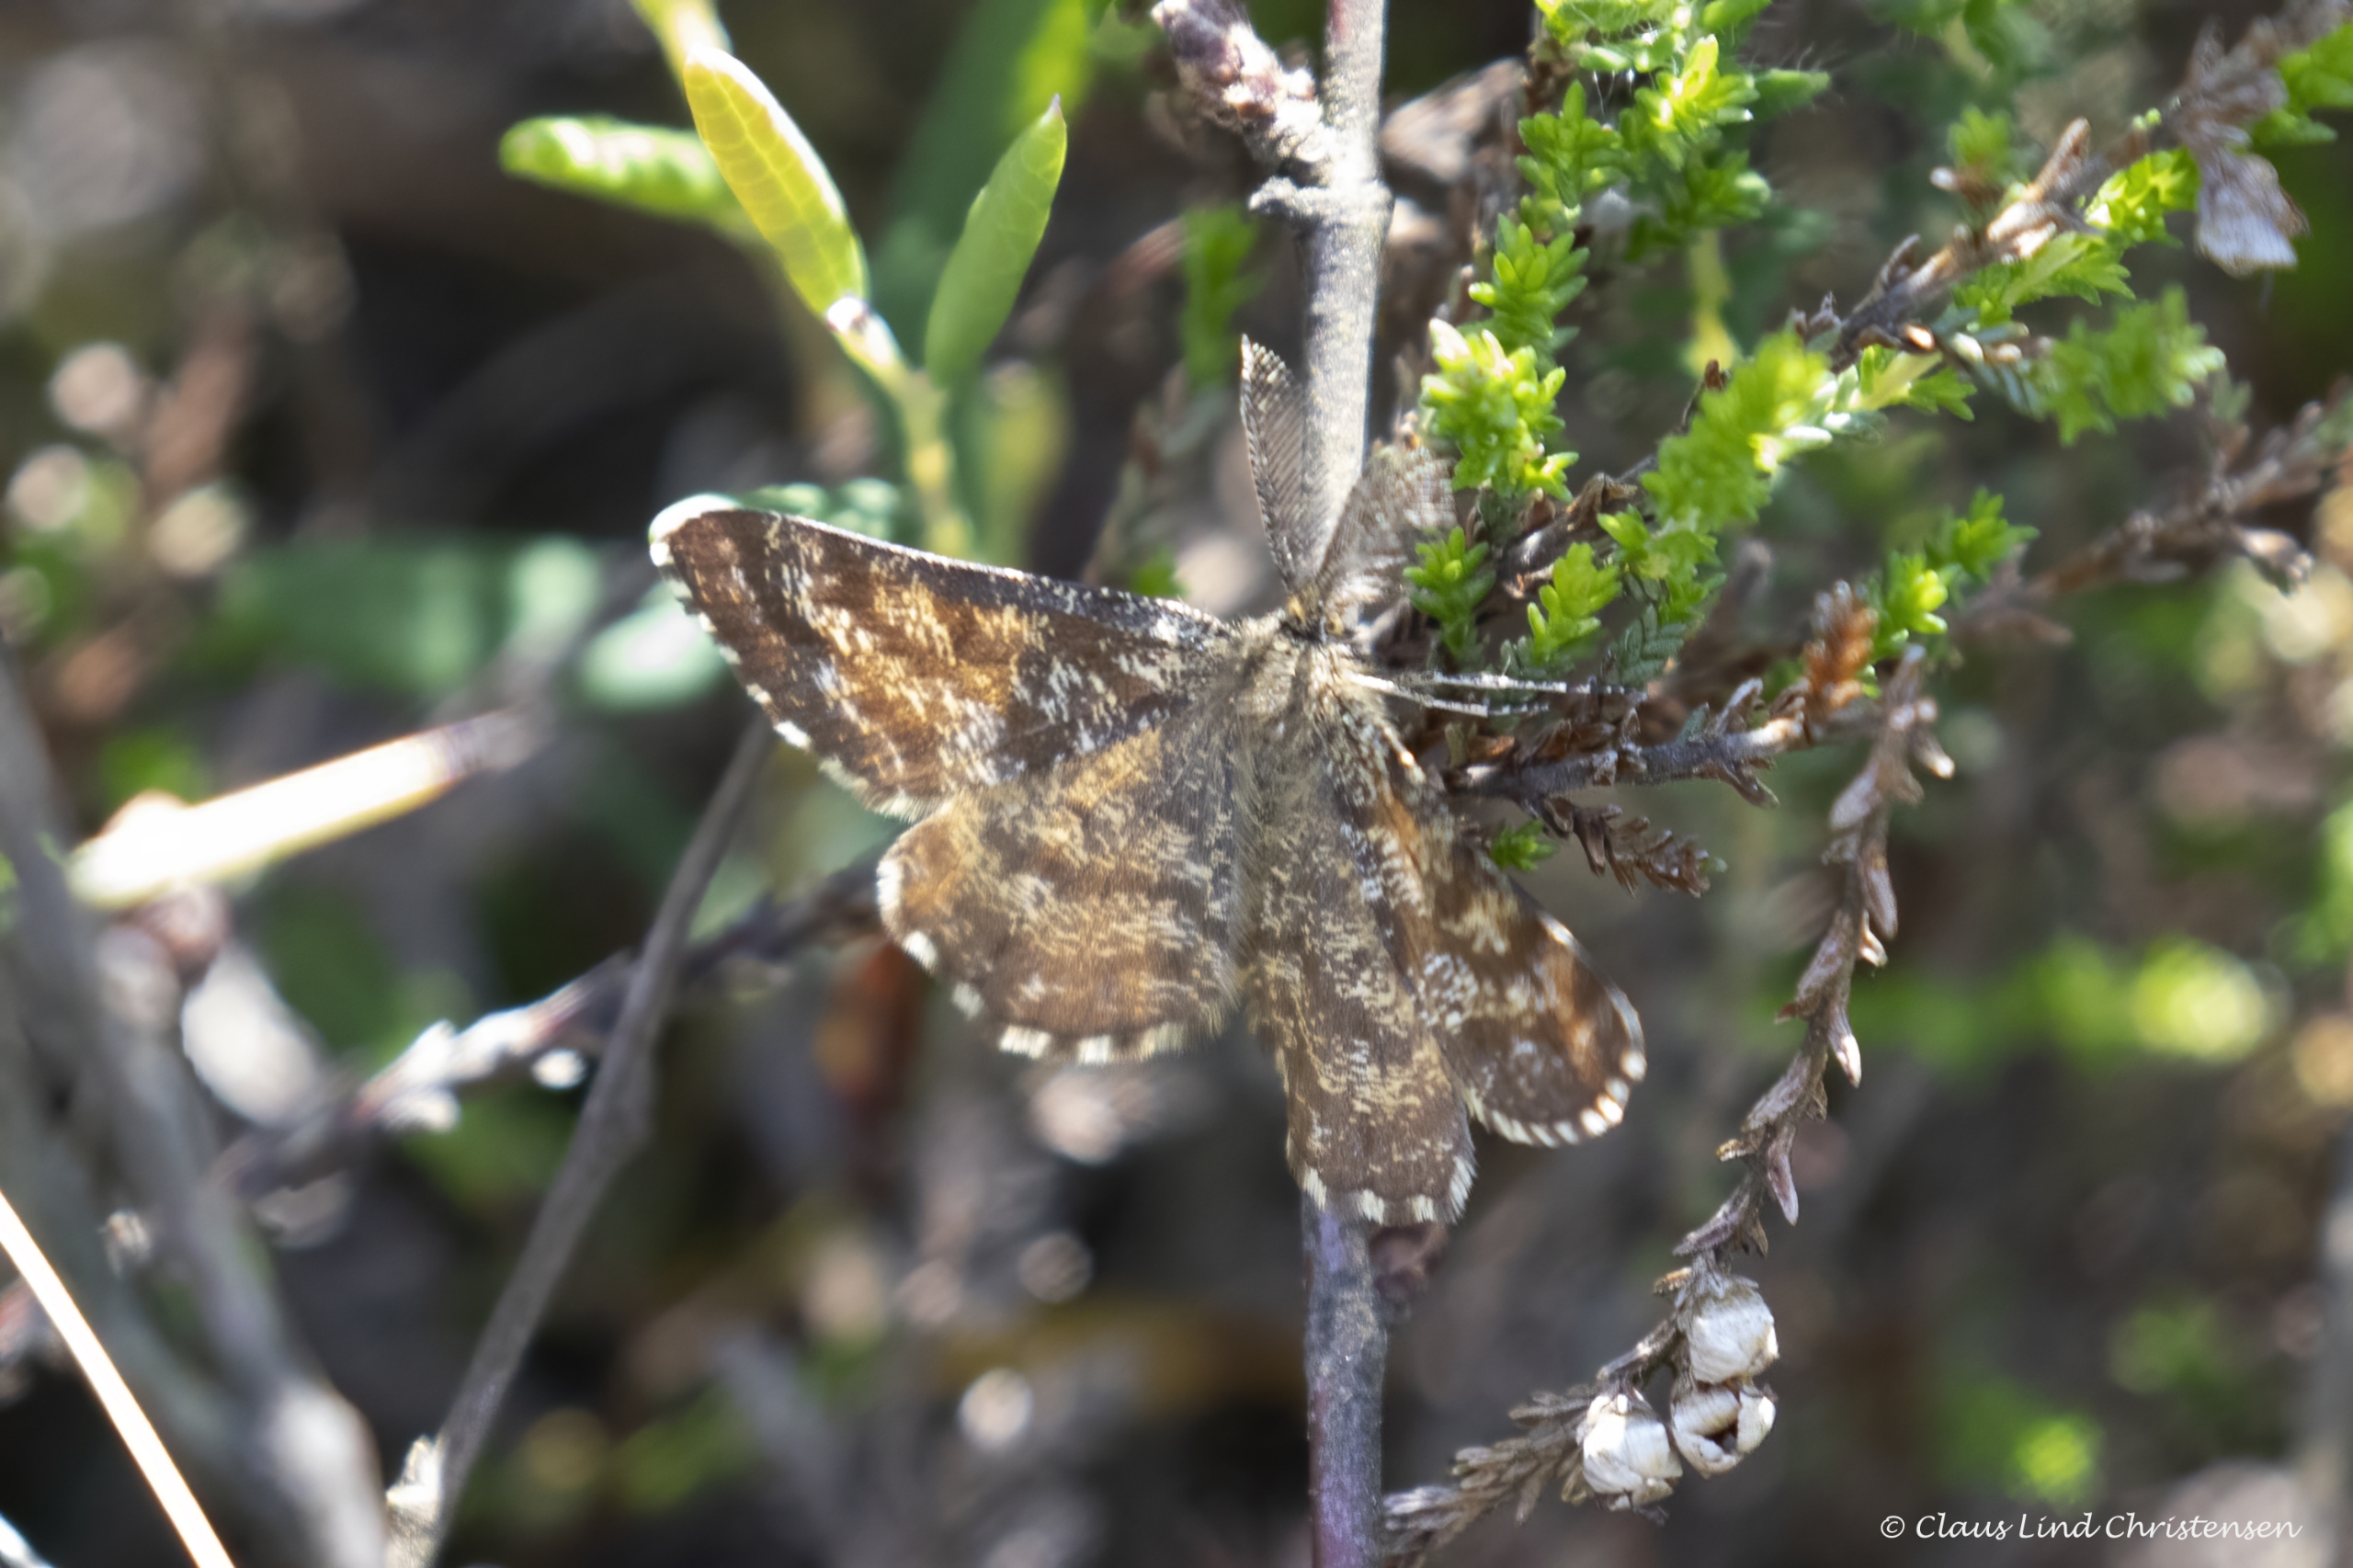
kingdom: Animalia
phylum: Arthropoda
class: Insecta
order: Lepidoptera
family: Geometridae
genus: Ematurga
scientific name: Ematurga atomaria
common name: Lyngmåler
